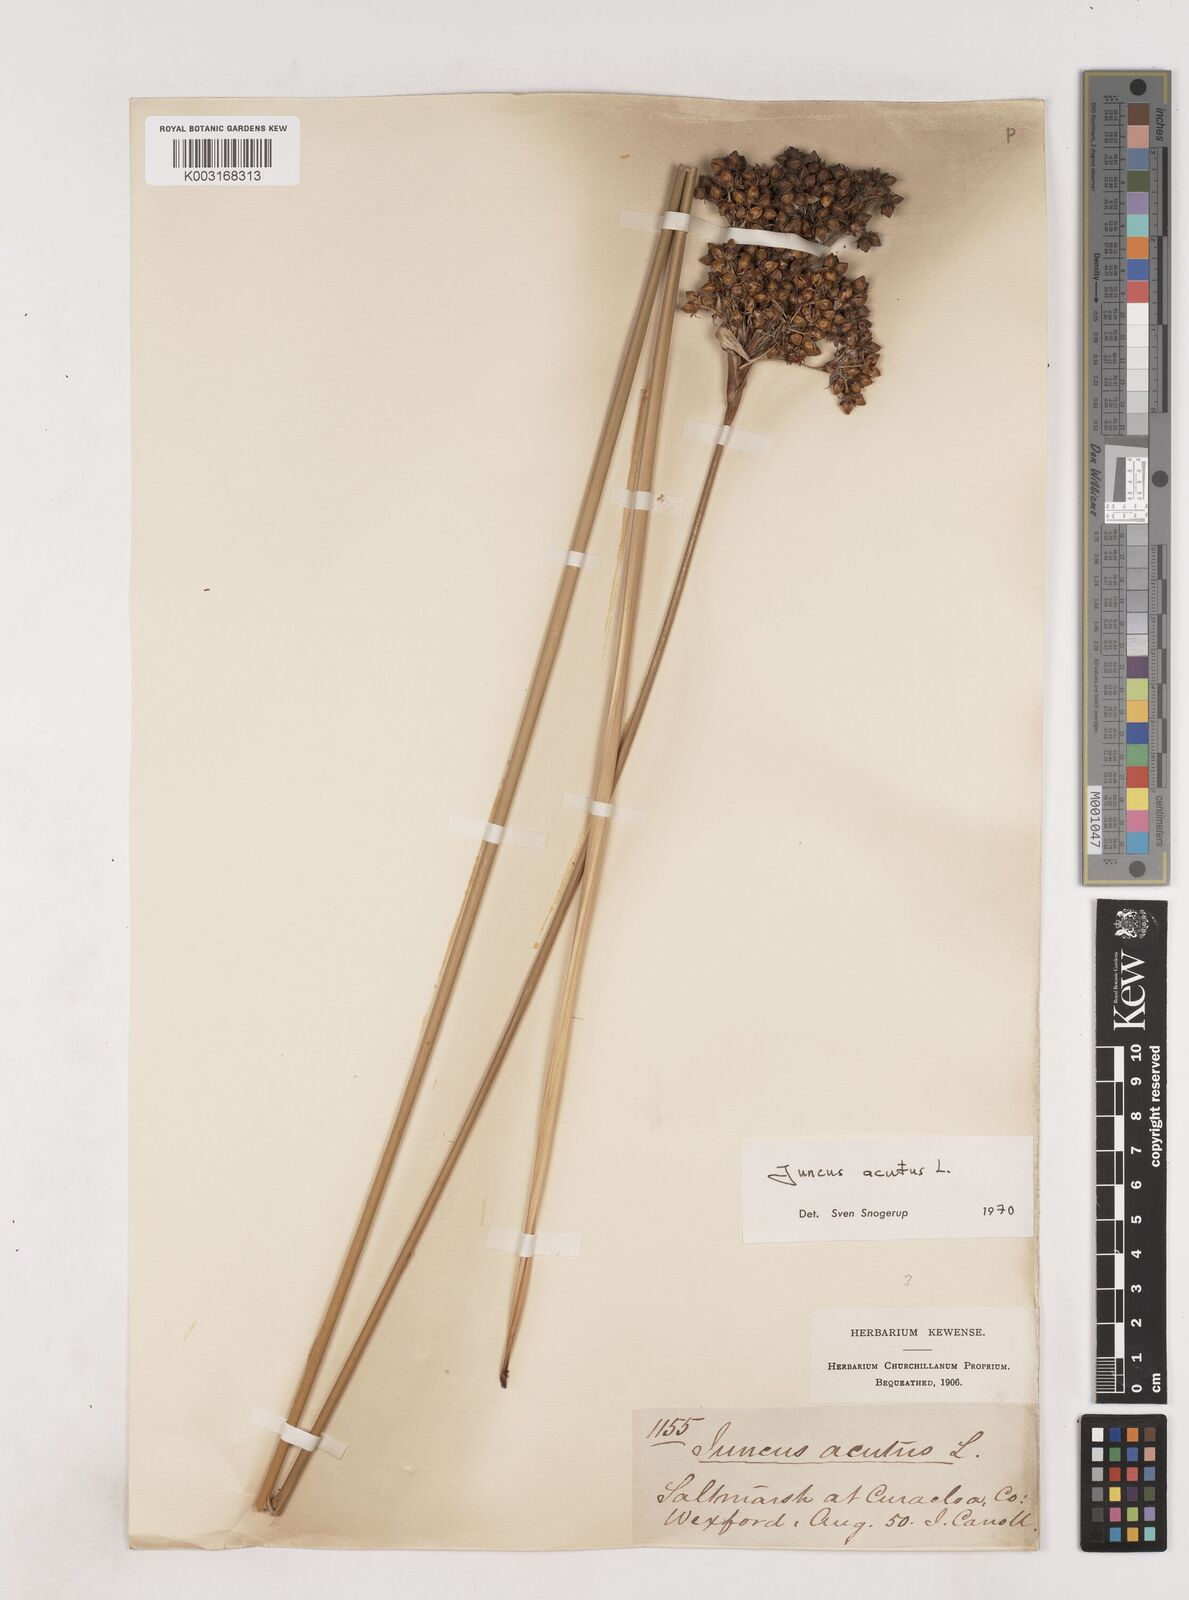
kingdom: Plantae
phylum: Tracheophyta
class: Liliopsida
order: Poales
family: Juncaceae
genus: Juncus
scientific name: Juncus acutus
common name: Sharp rush
